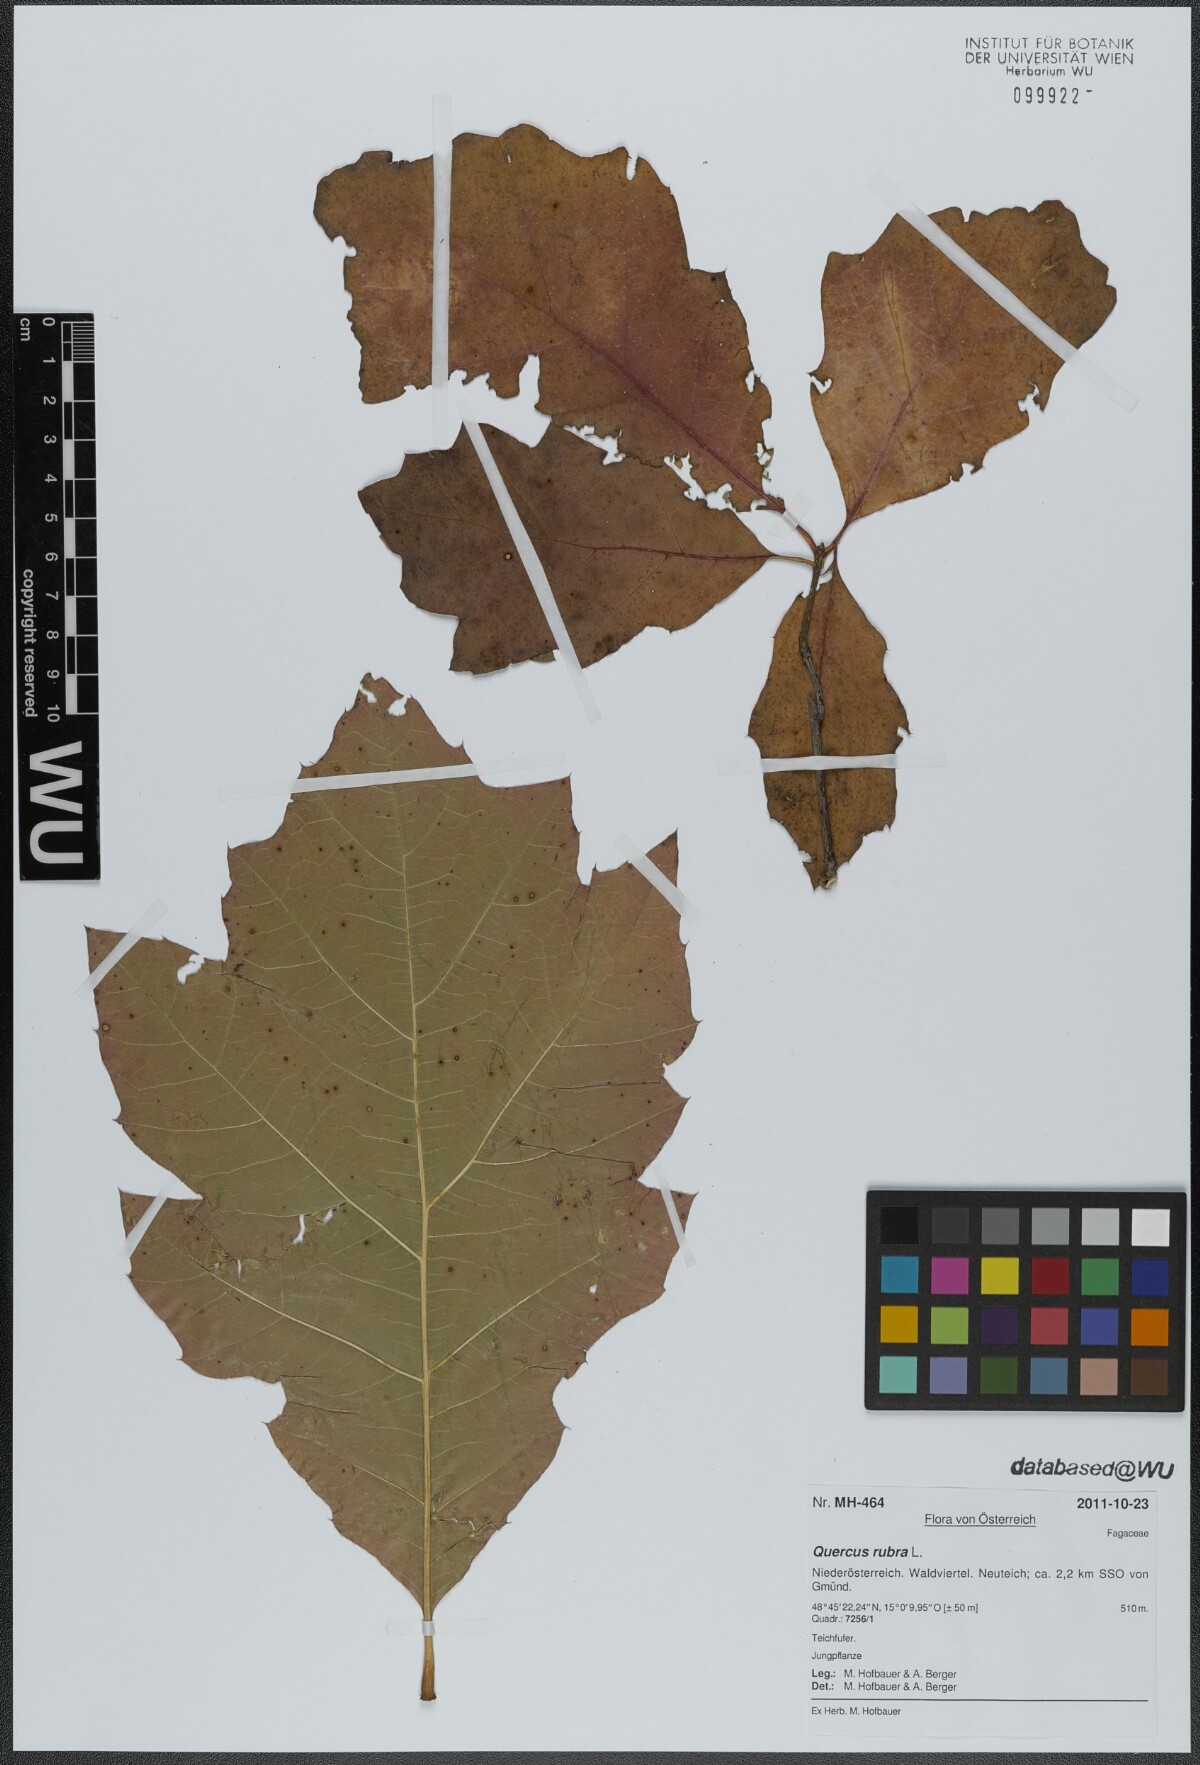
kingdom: Plantae
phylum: Tracheophyta
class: Magnoliopsida
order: Fagales
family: Fagaceae
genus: Quercus
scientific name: Quercus rubra
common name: Red oak
